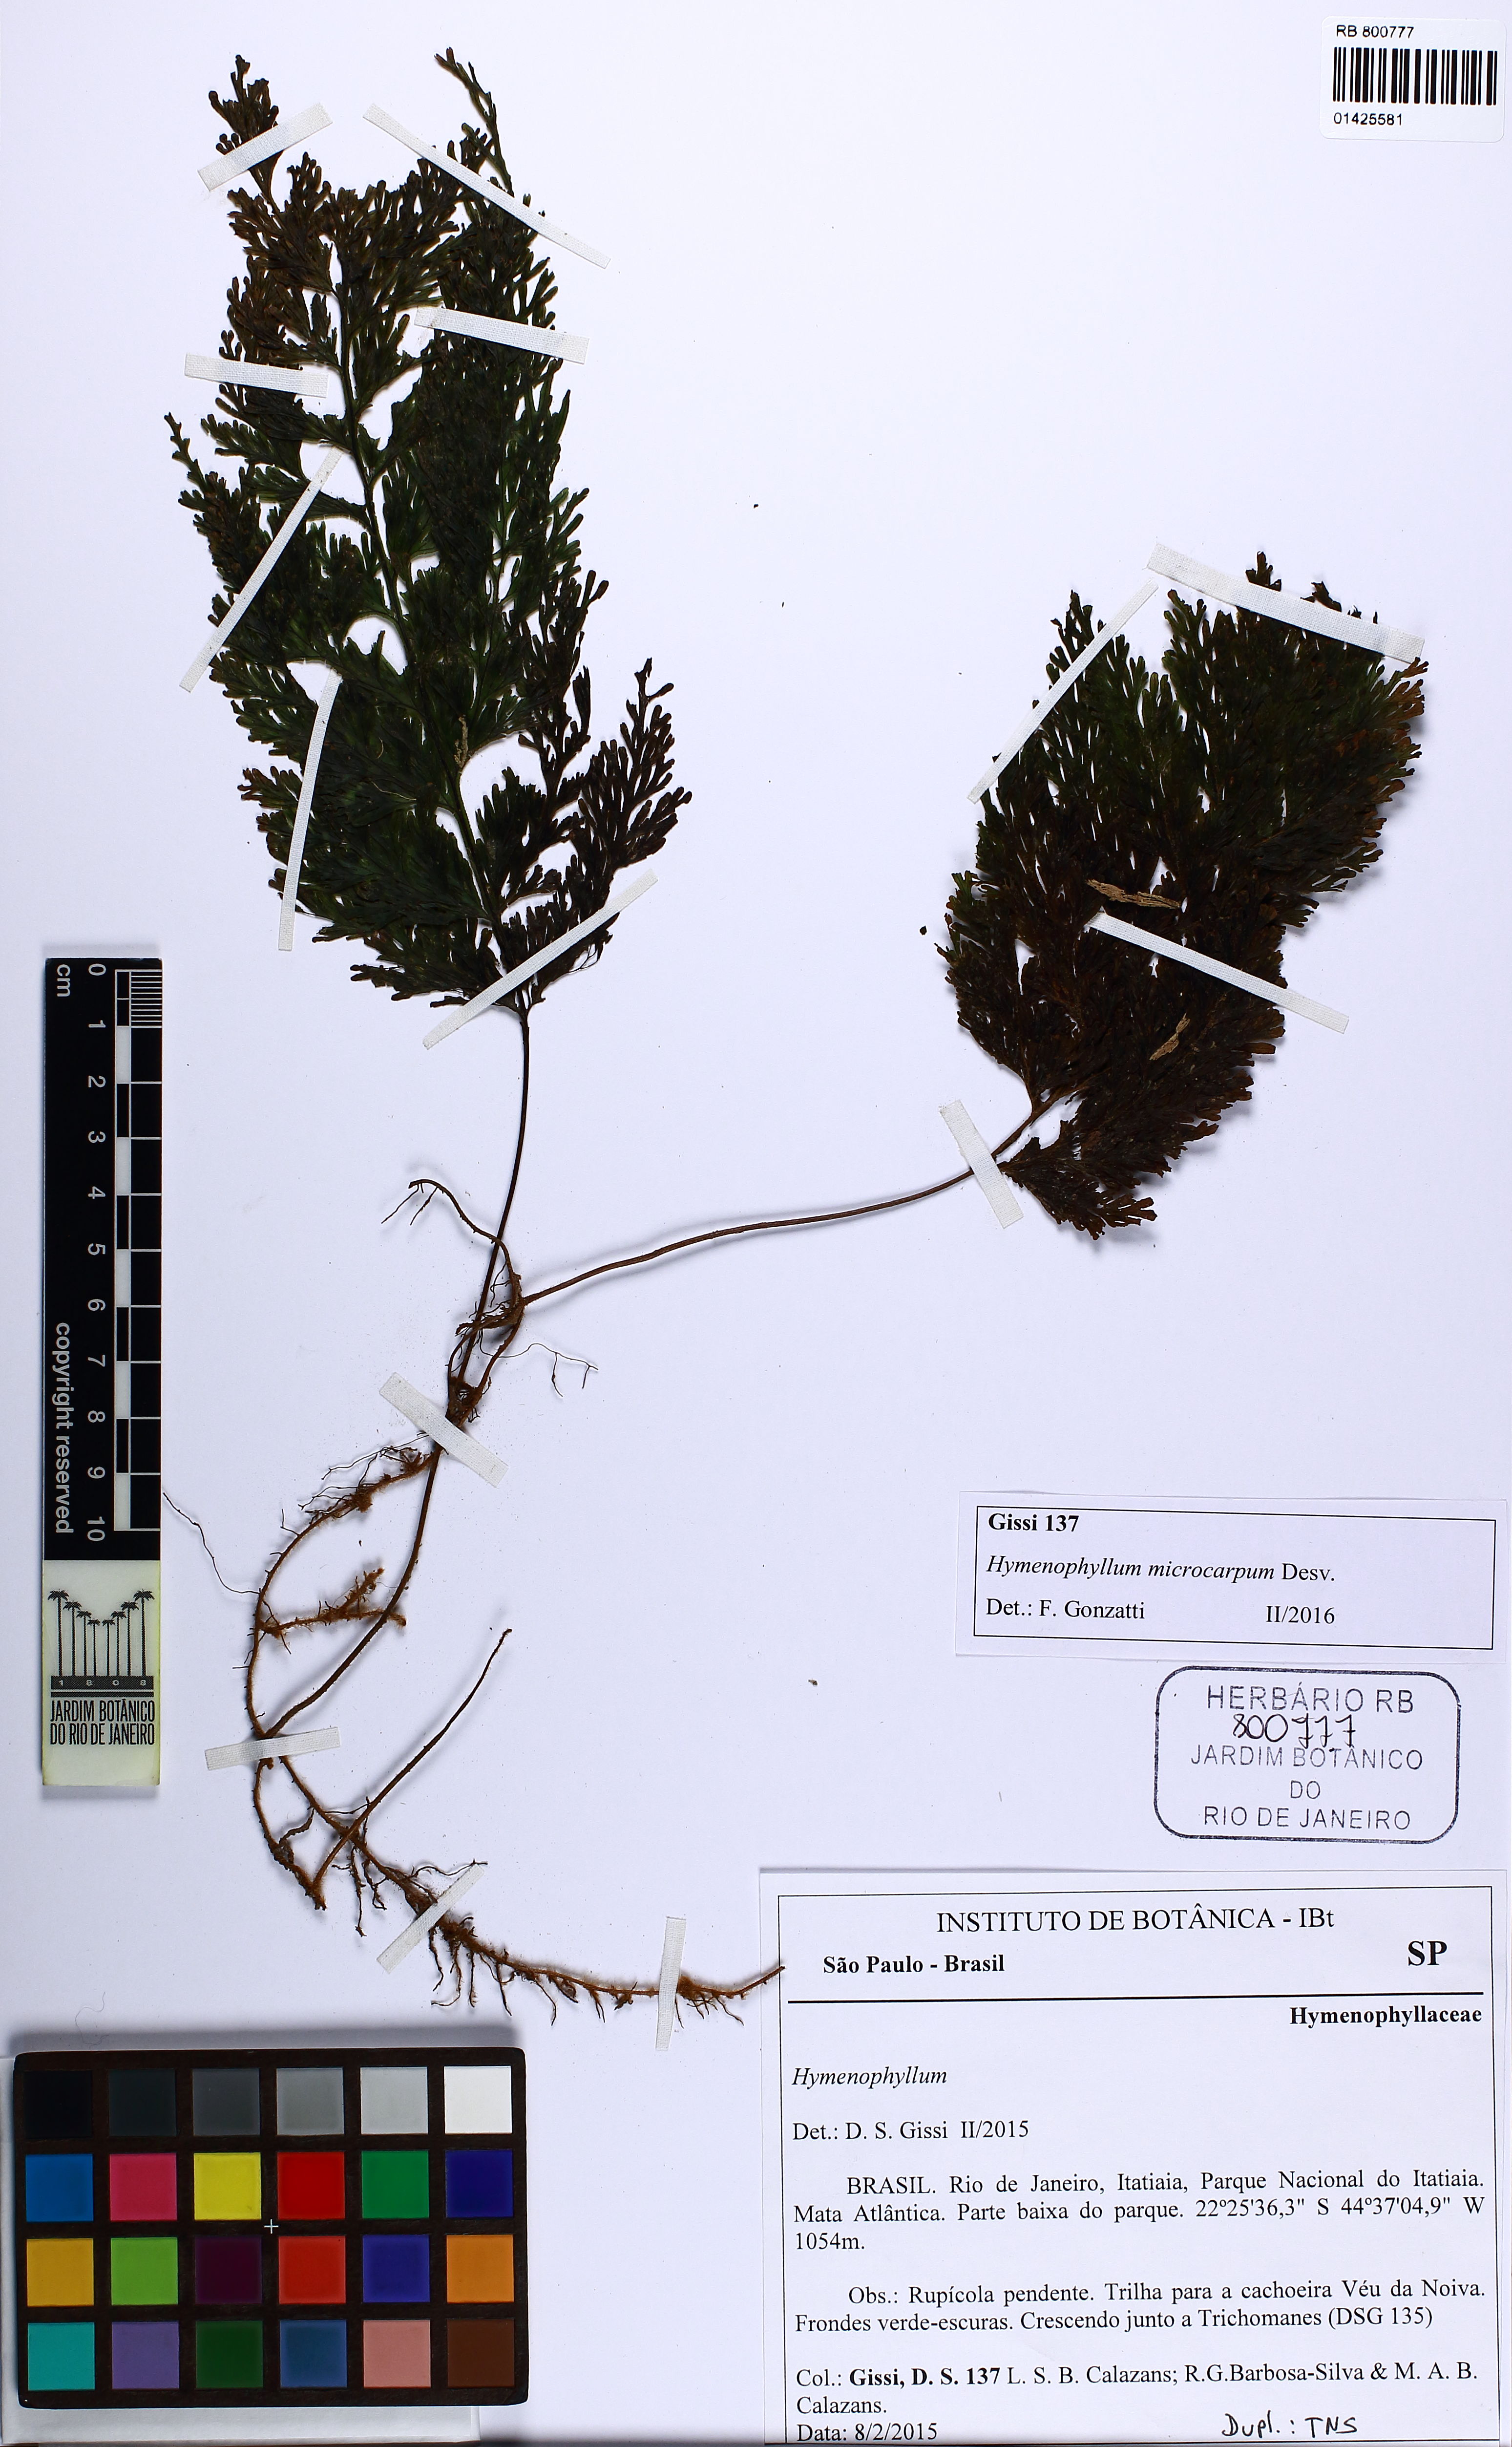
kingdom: Plantae
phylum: Tracheophyta
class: Polypodiopsida
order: Hymenophyllales
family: Hymenophyllaceae
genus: Hymenophyllum
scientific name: Hymenophyllum
